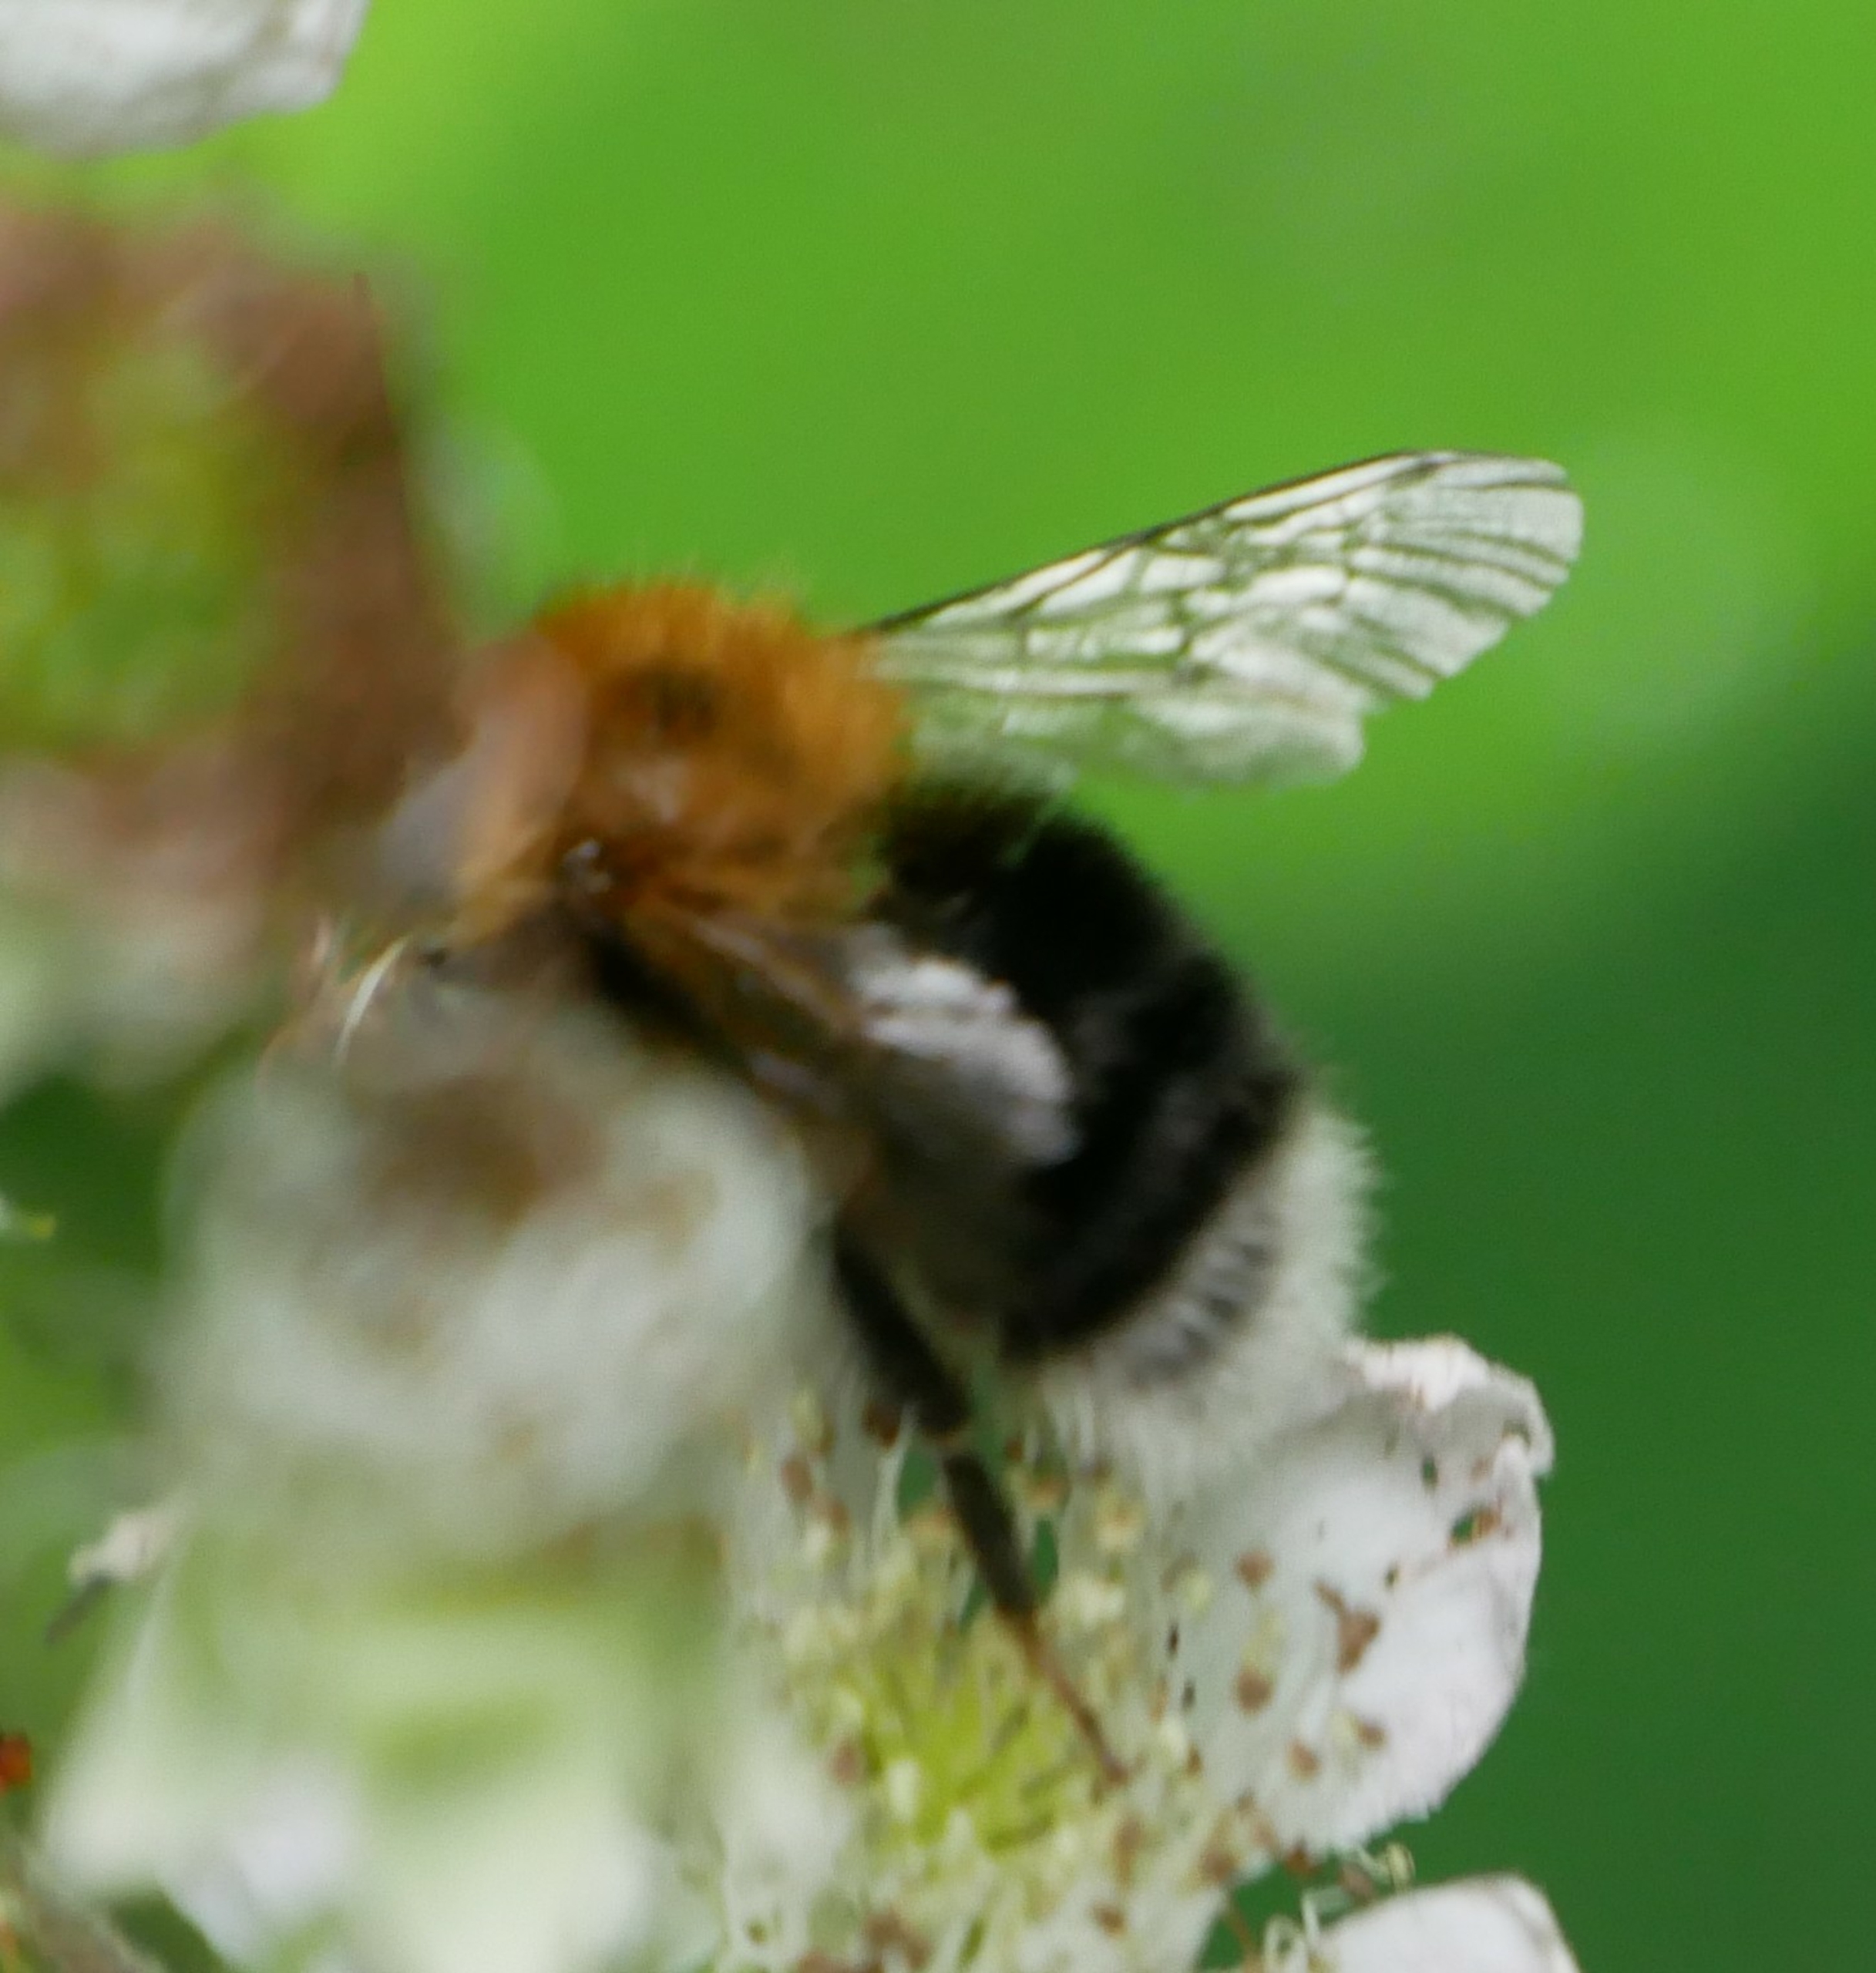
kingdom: Animalia
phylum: Arthropoda
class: Insecta
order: Hymenoptera
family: Apidae
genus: Bombus
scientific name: Bombus hypnorum
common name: Hushumle
